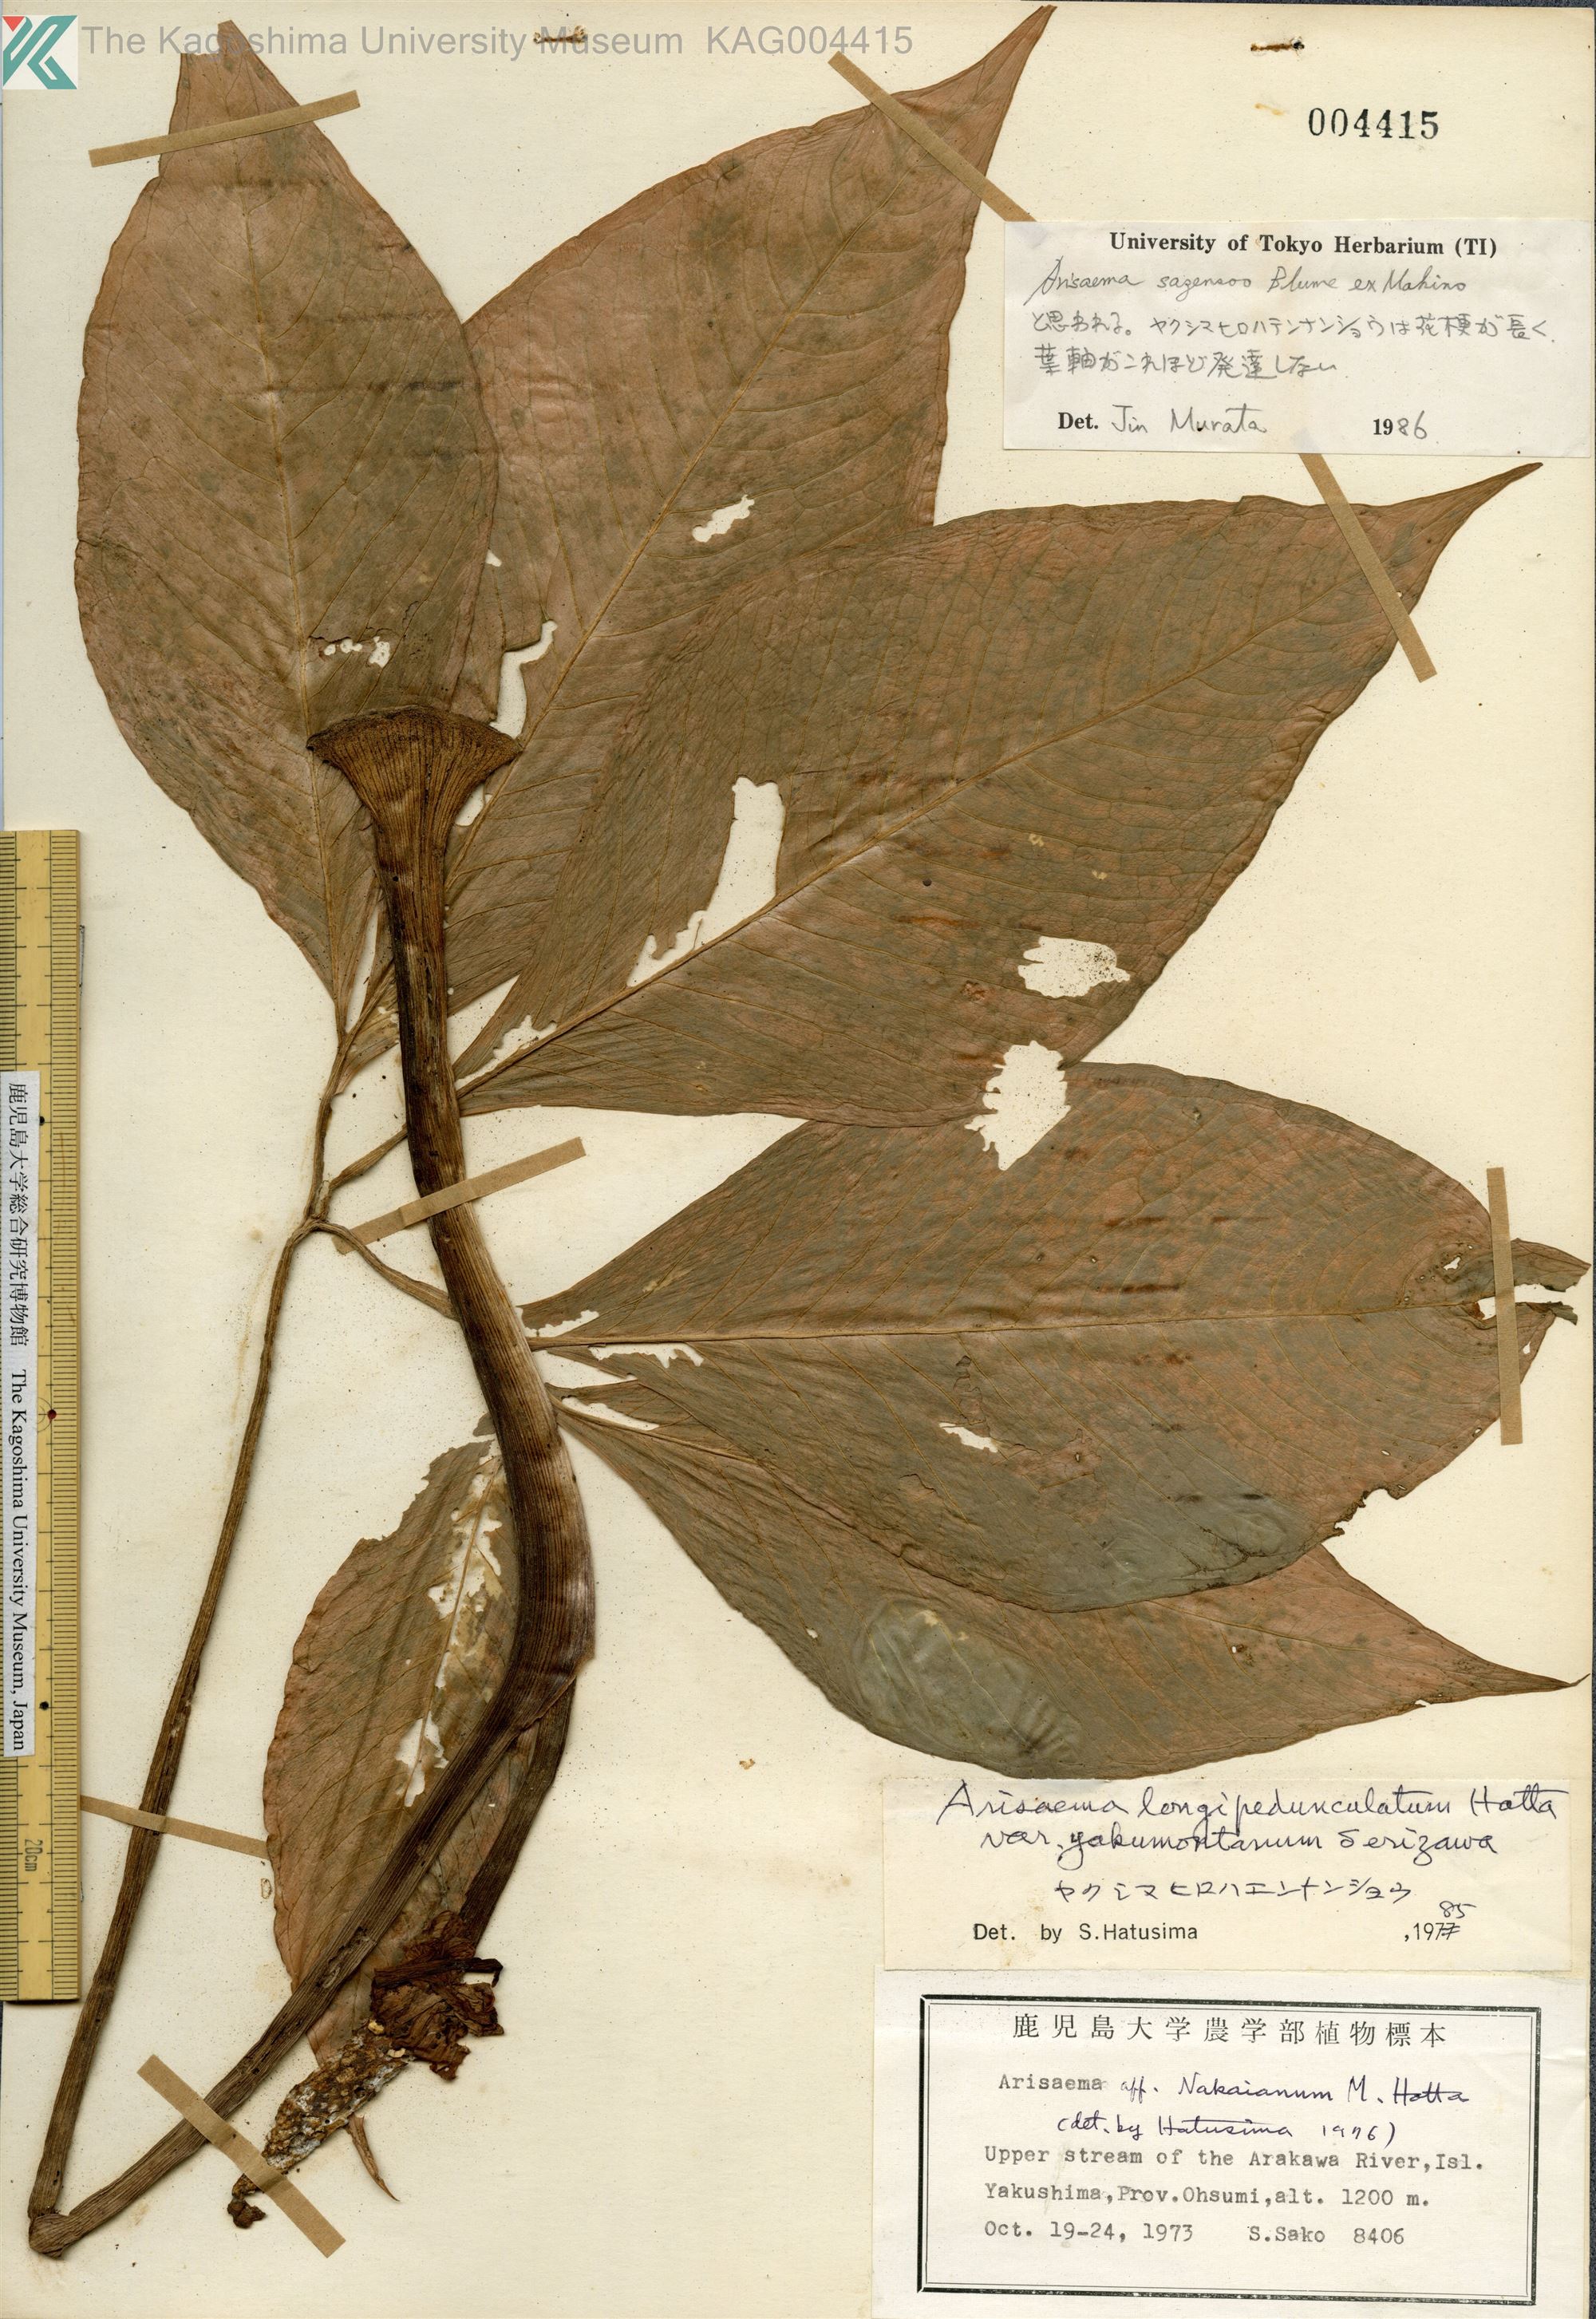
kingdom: Plantae
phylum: Tracheophyta
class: Liliopsida
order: Alismatales
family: Araceae
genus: Arisaema
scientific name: Arisaema sazensoo
